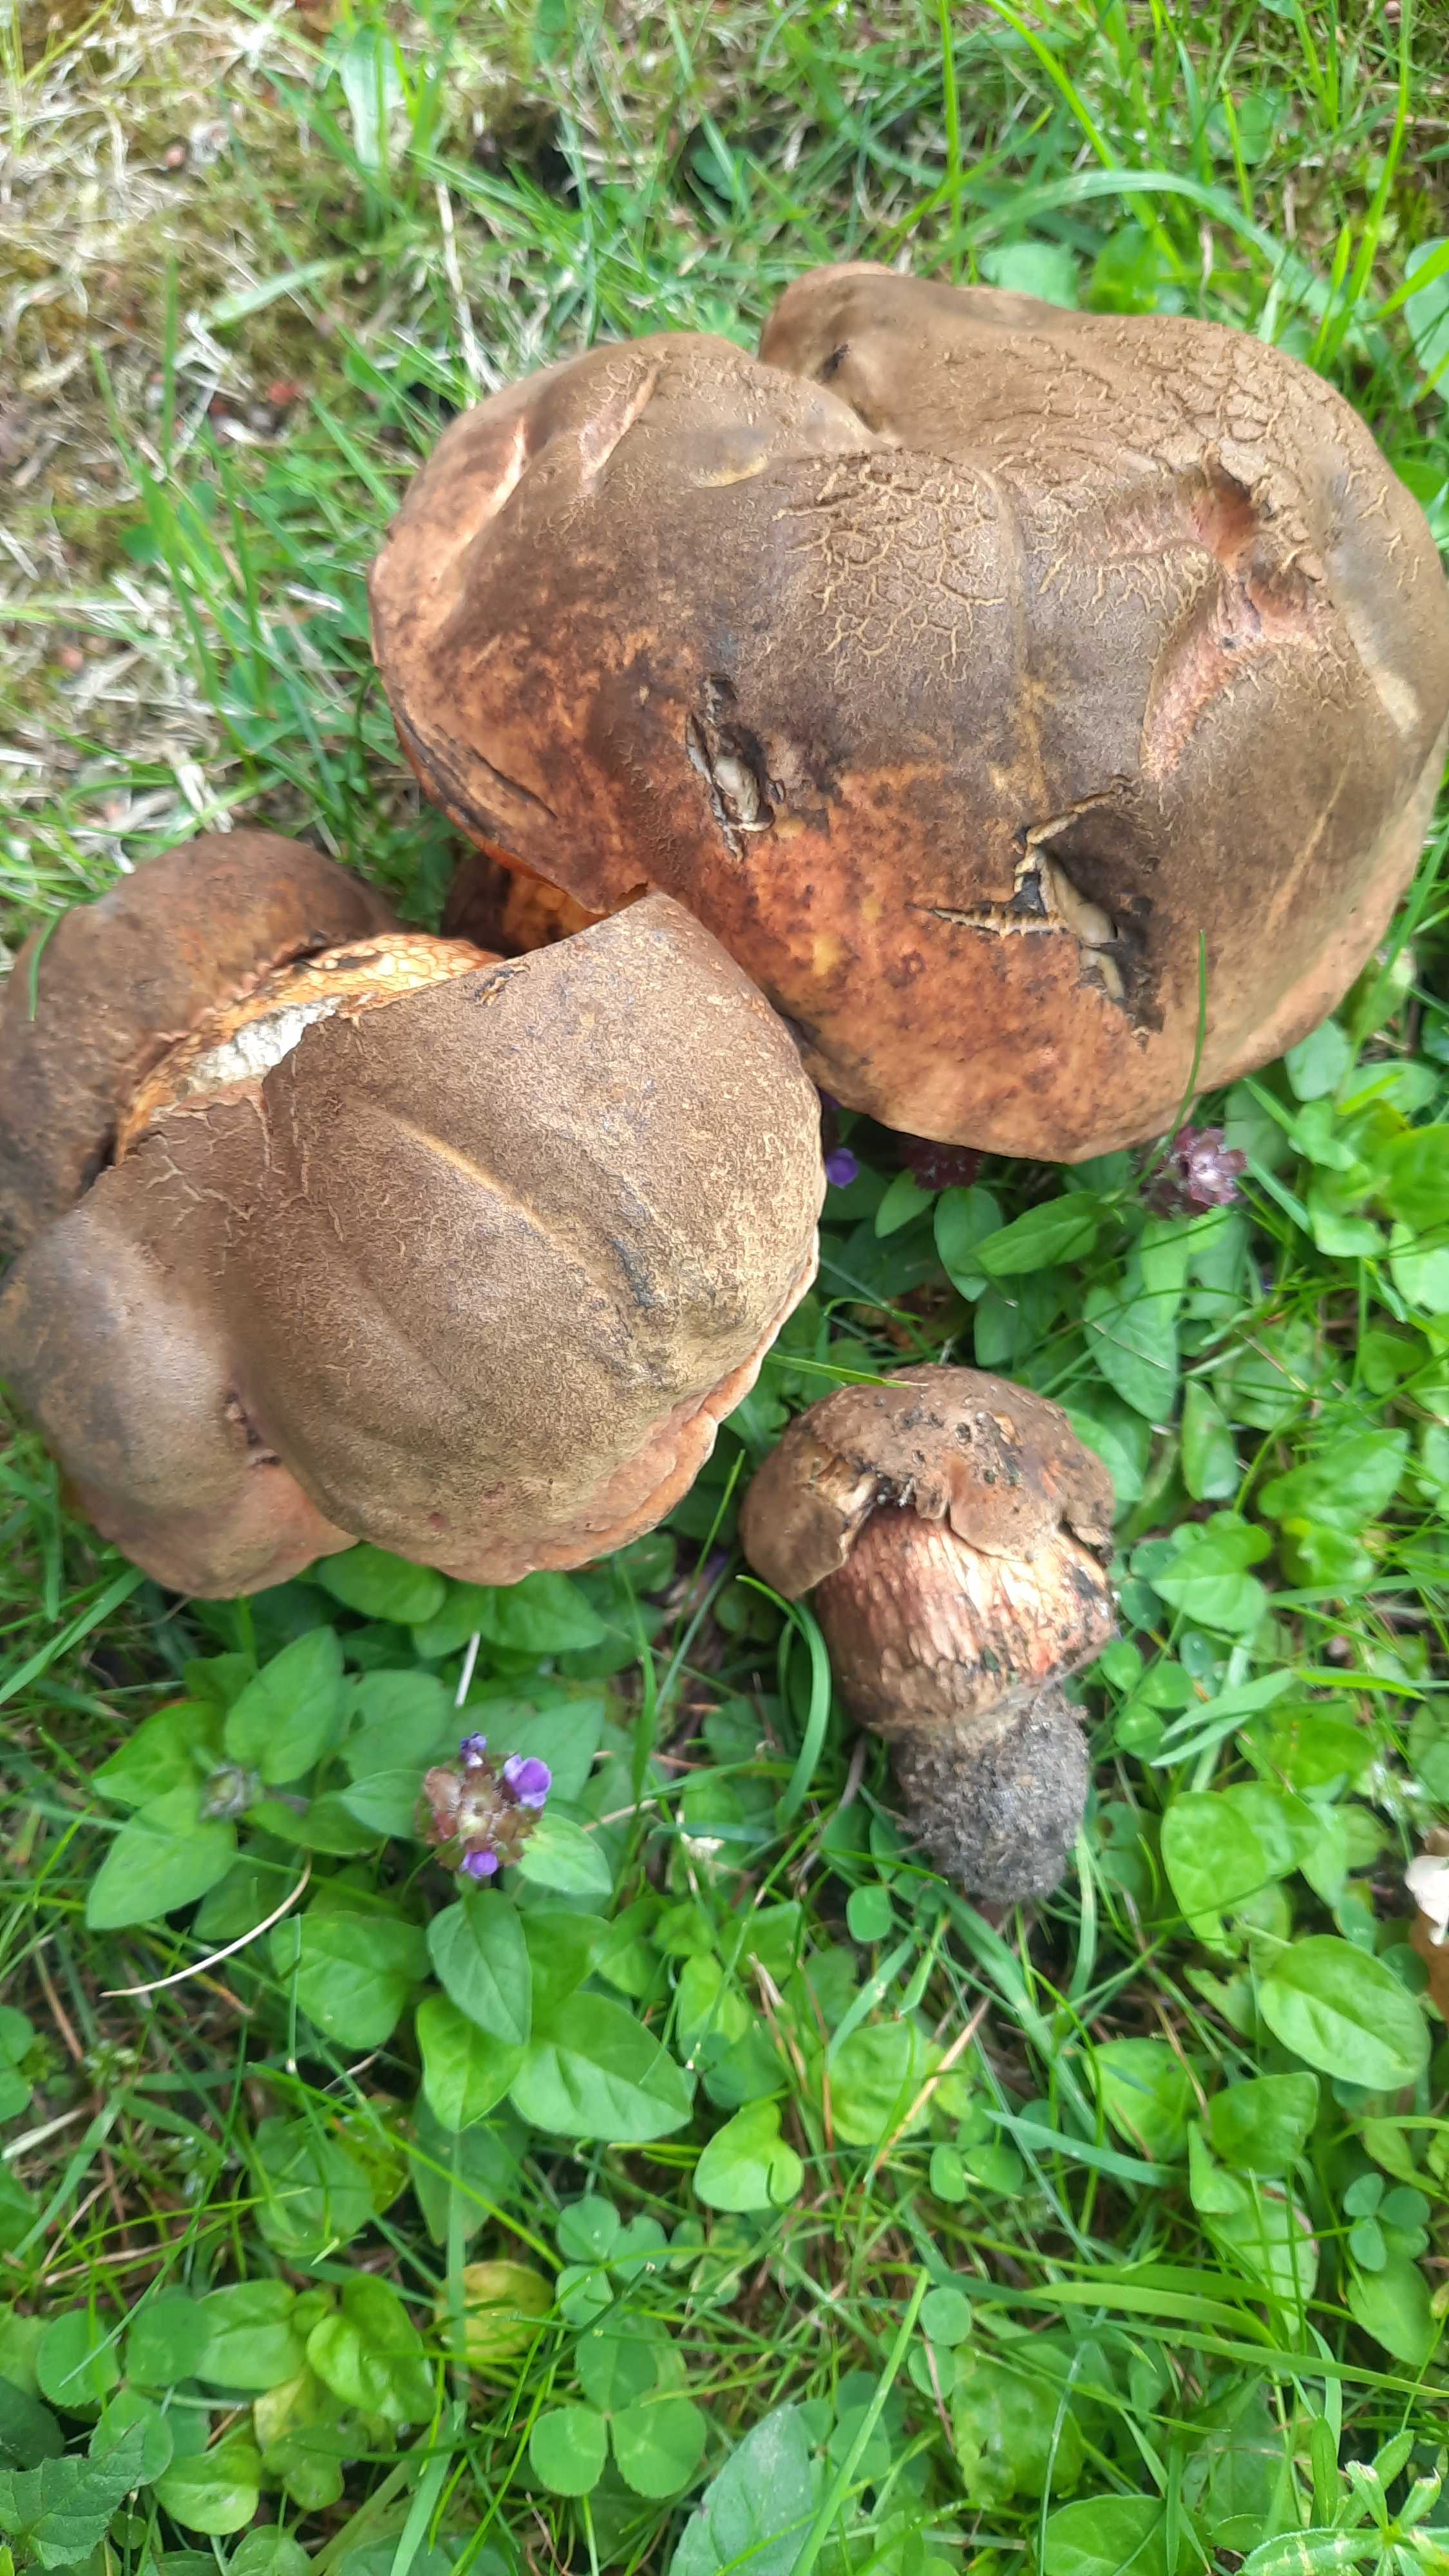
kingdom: Fungi
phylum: Basidiomycota
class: Agaricomycetes
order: Boletales
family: Boletaceae
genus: Suillellus
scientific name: Suillellus luridus
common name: netstokket indigorørhat
